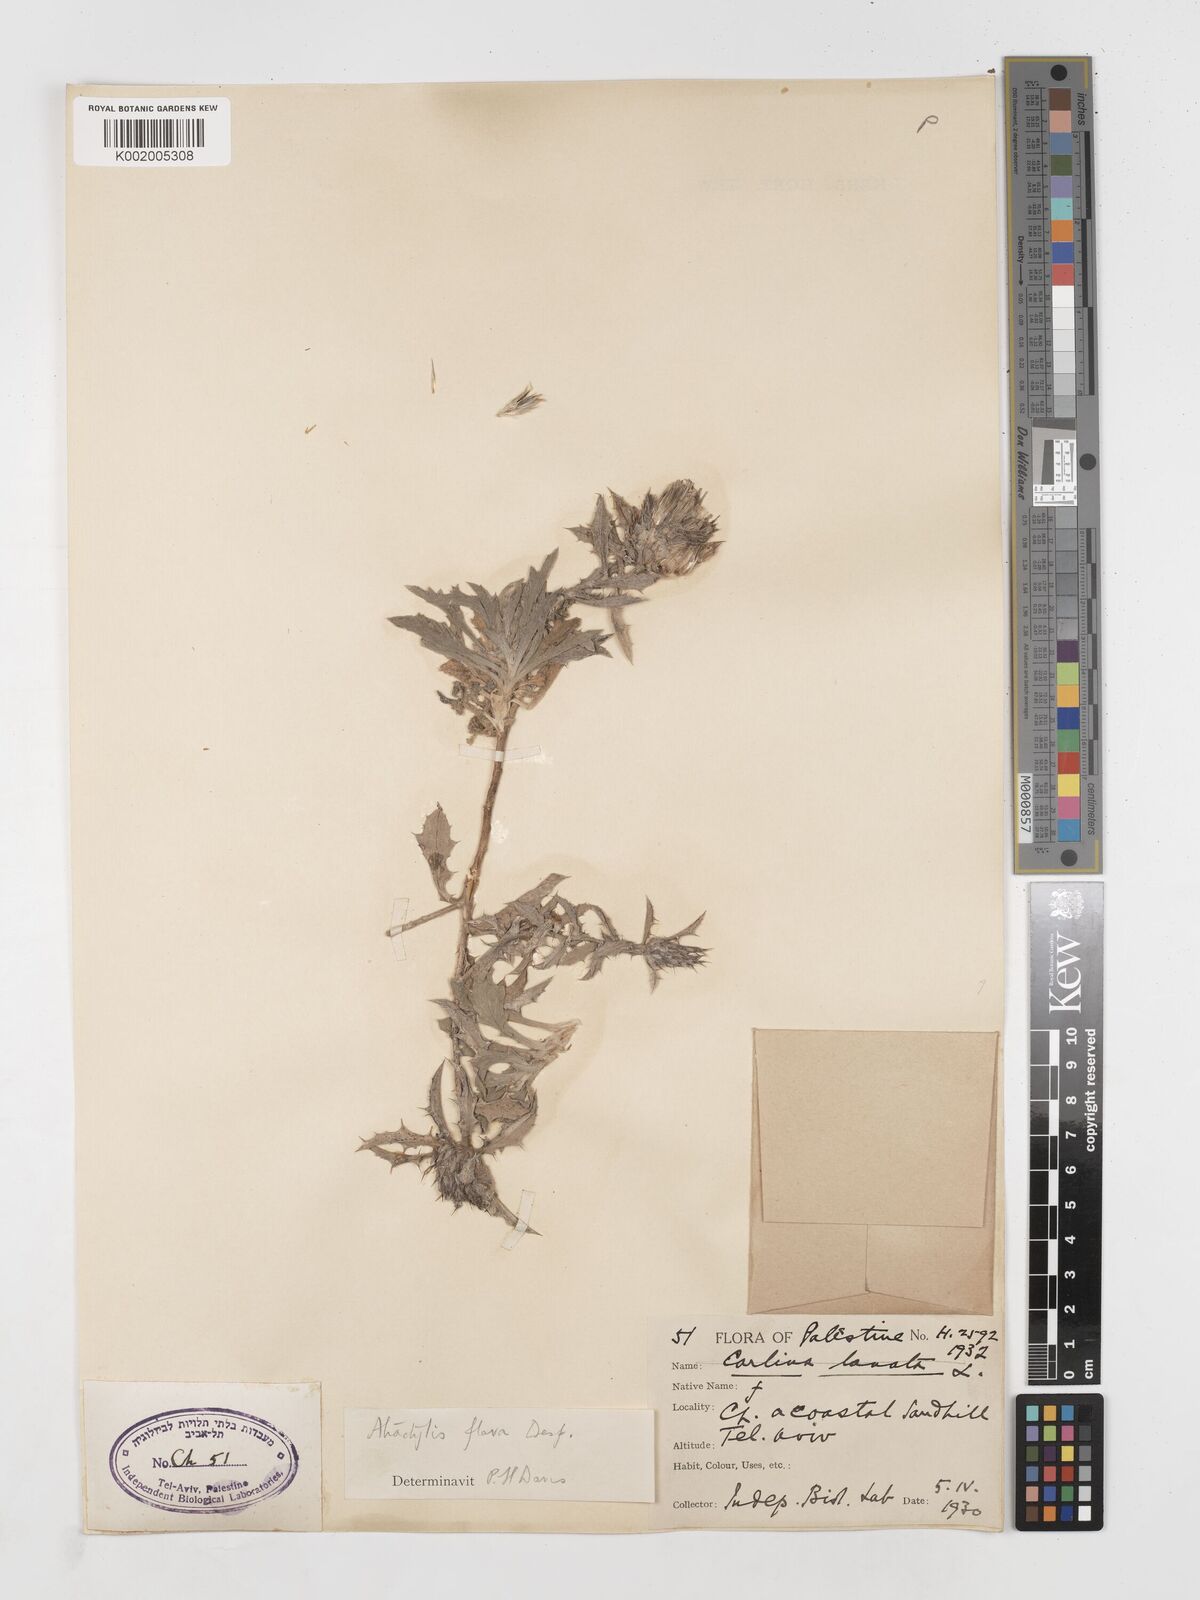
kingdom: Plantae
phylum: Tracheophyta
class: Magnoliopsida
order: Asterales
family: Asteraceae
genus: Atractylis
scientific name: Atractylis carduus
